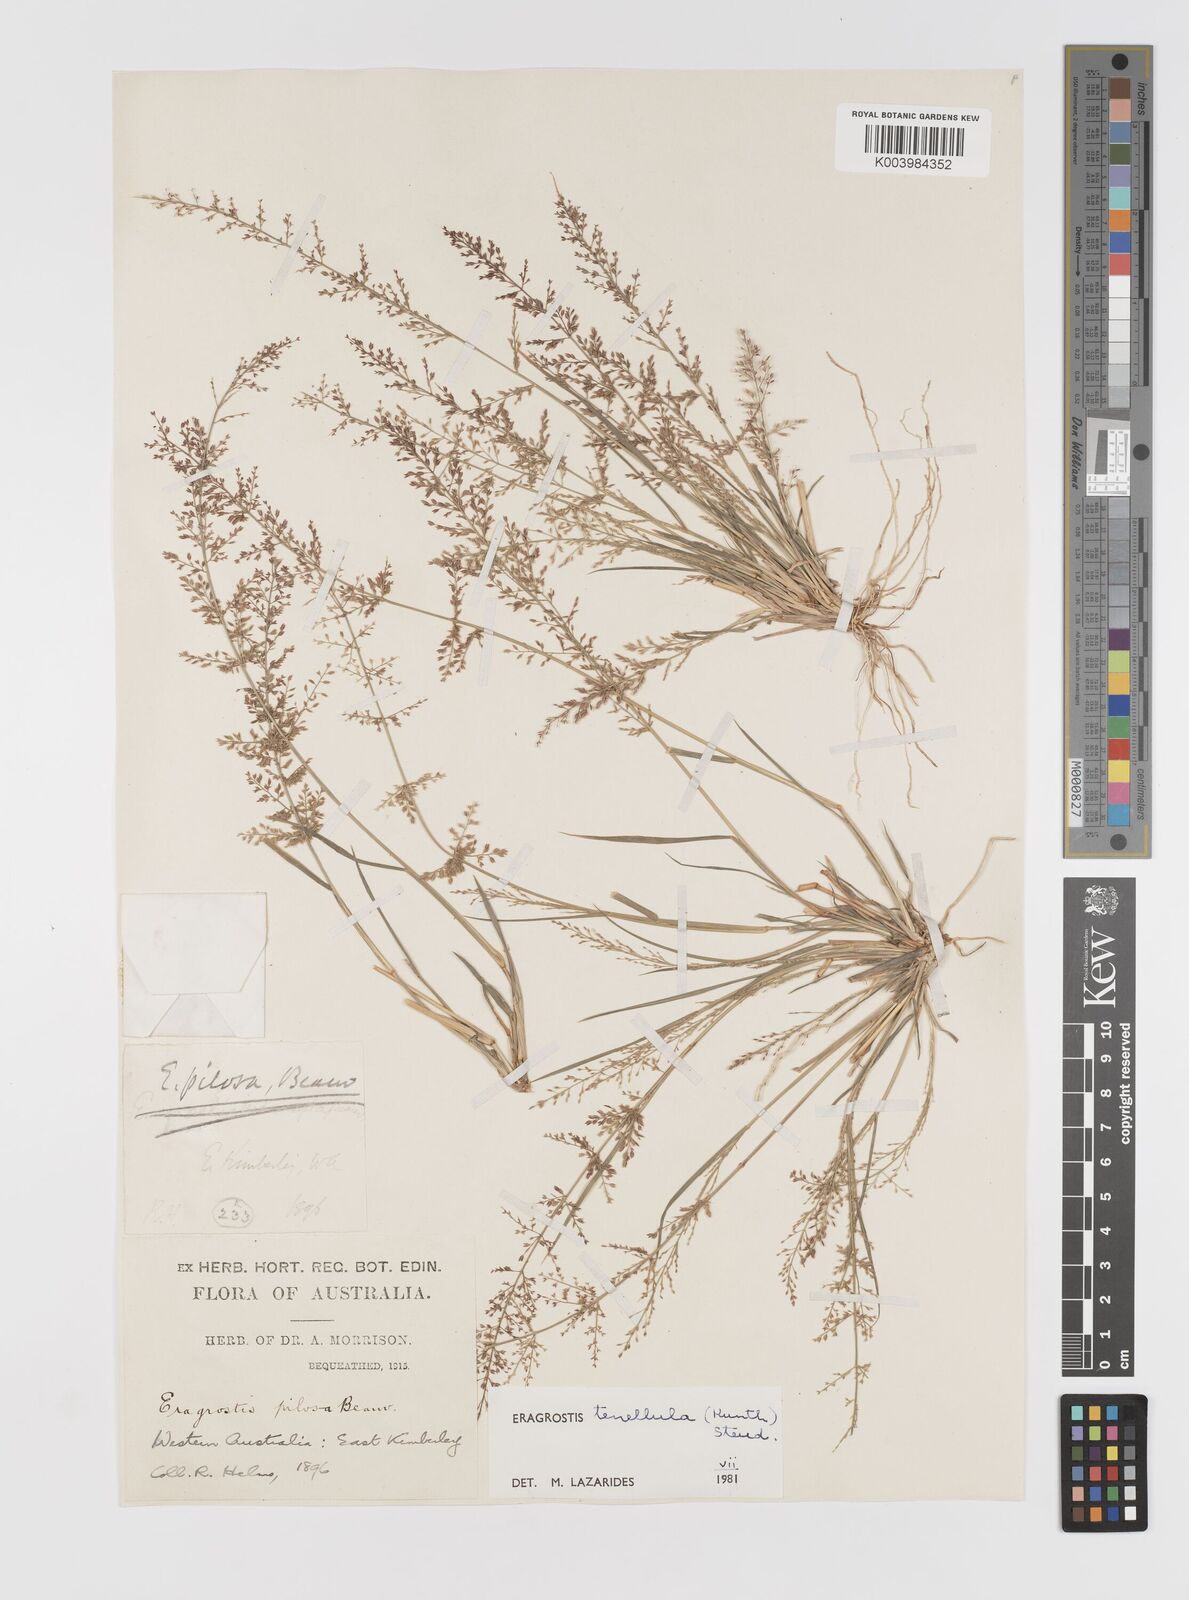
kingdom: Plantae
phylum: Tracheophyta
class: Liliopsida
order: Poales
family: Poaceae
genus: Eragrostis
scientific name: Eragrostis tenellula
